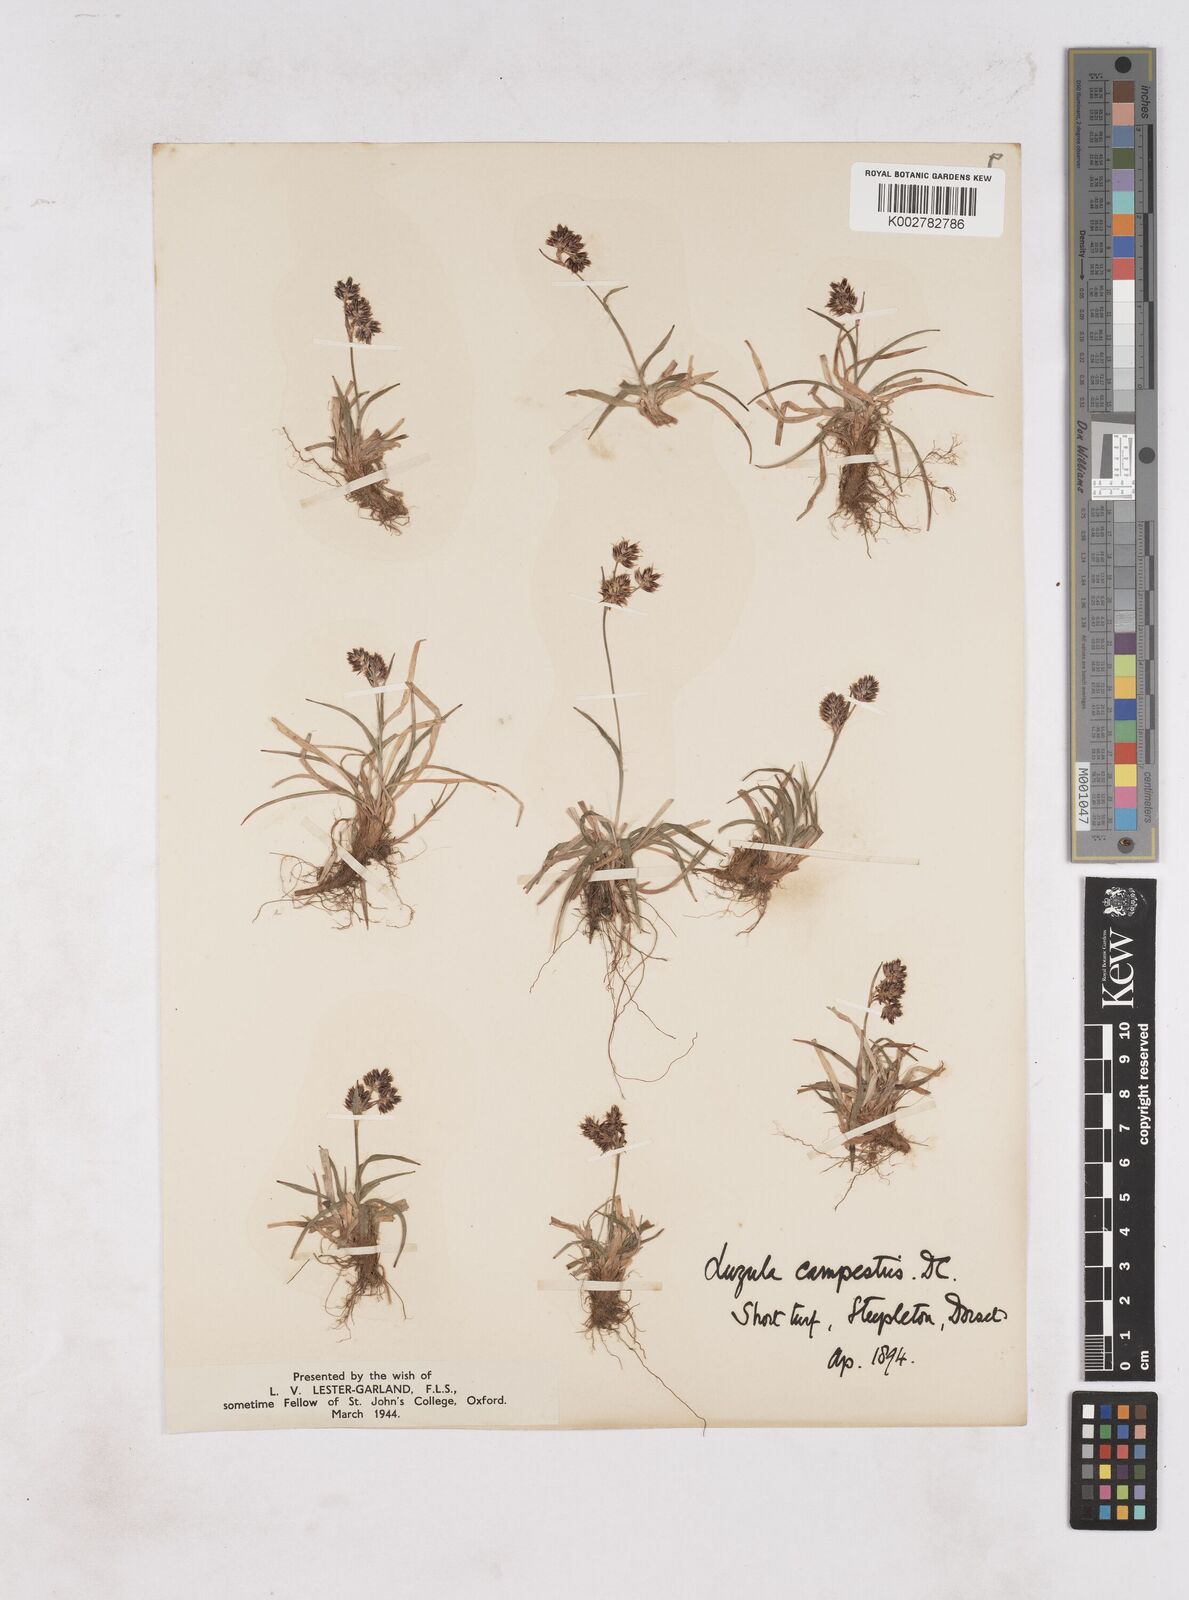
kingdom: Plantae
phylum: Tracheophyta
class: Liliopsida
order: Poales
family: Juncaceae
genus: Luzula
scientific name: Luzula campestris
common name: Field wood-rush
